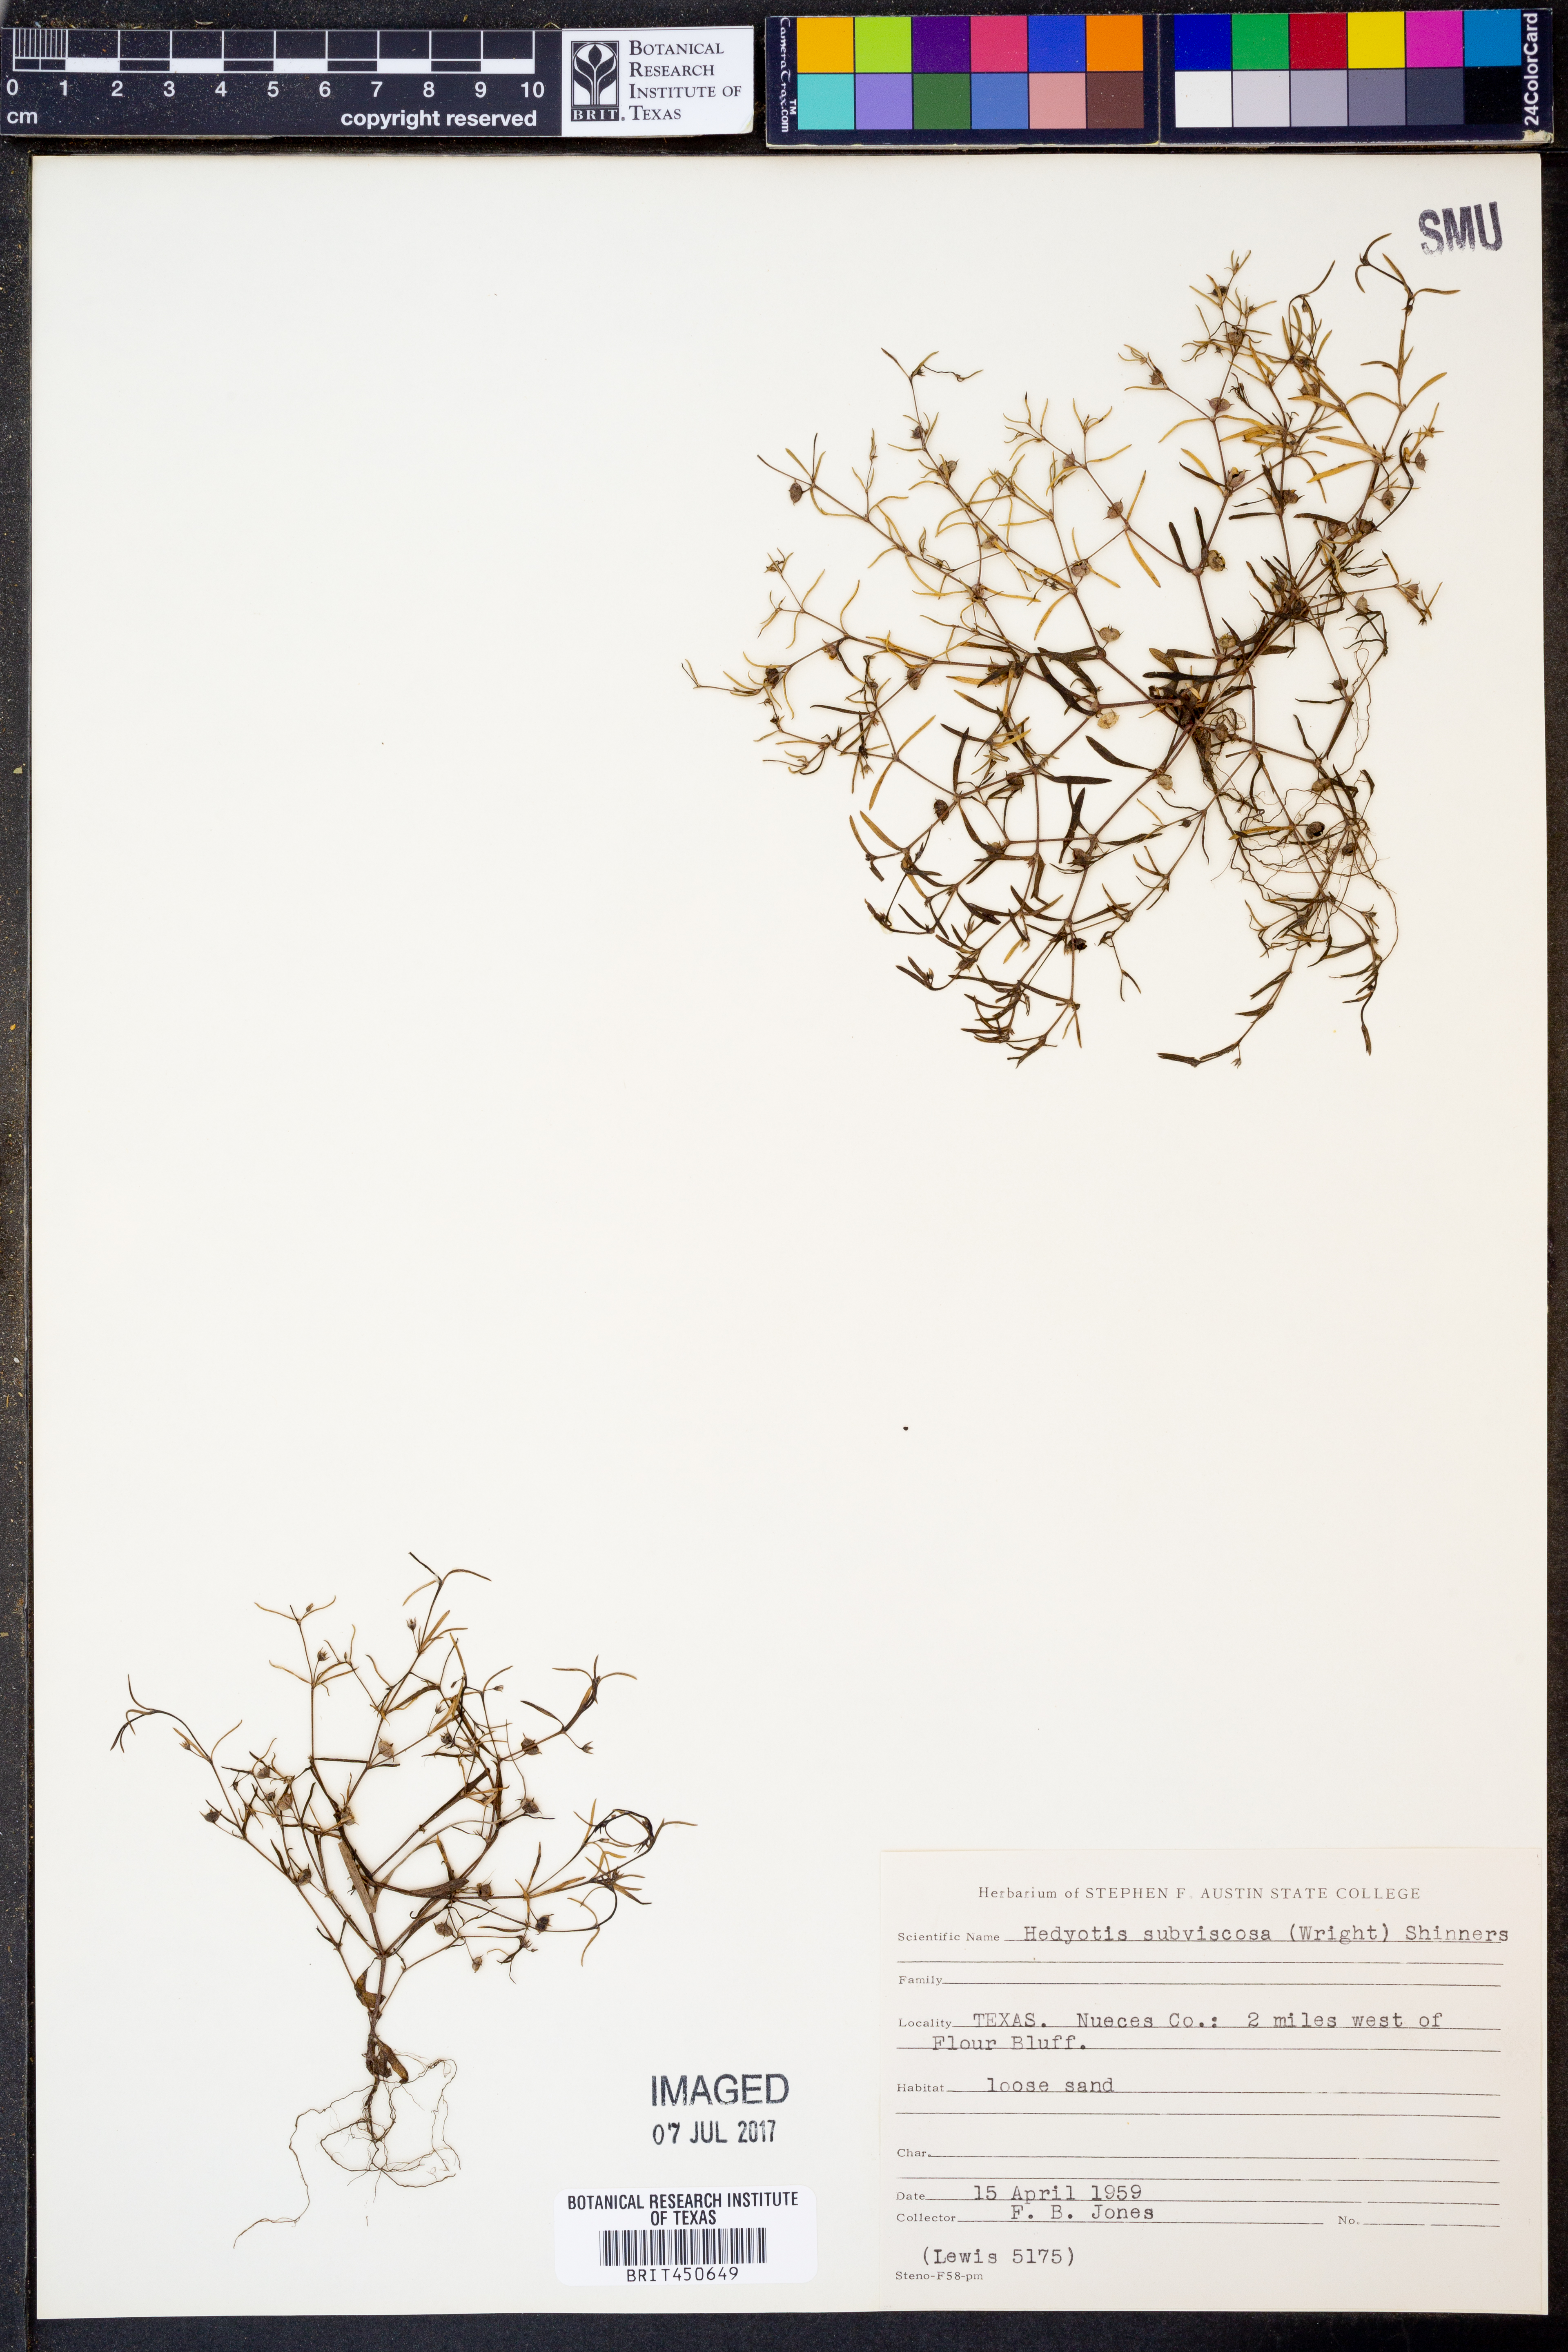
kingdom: Plantae
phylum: Tracheophyta
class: Magnoliopsida
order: Gentianales
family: Rubiaceae
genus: Houstonia
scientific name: Houstonia subviscosa
